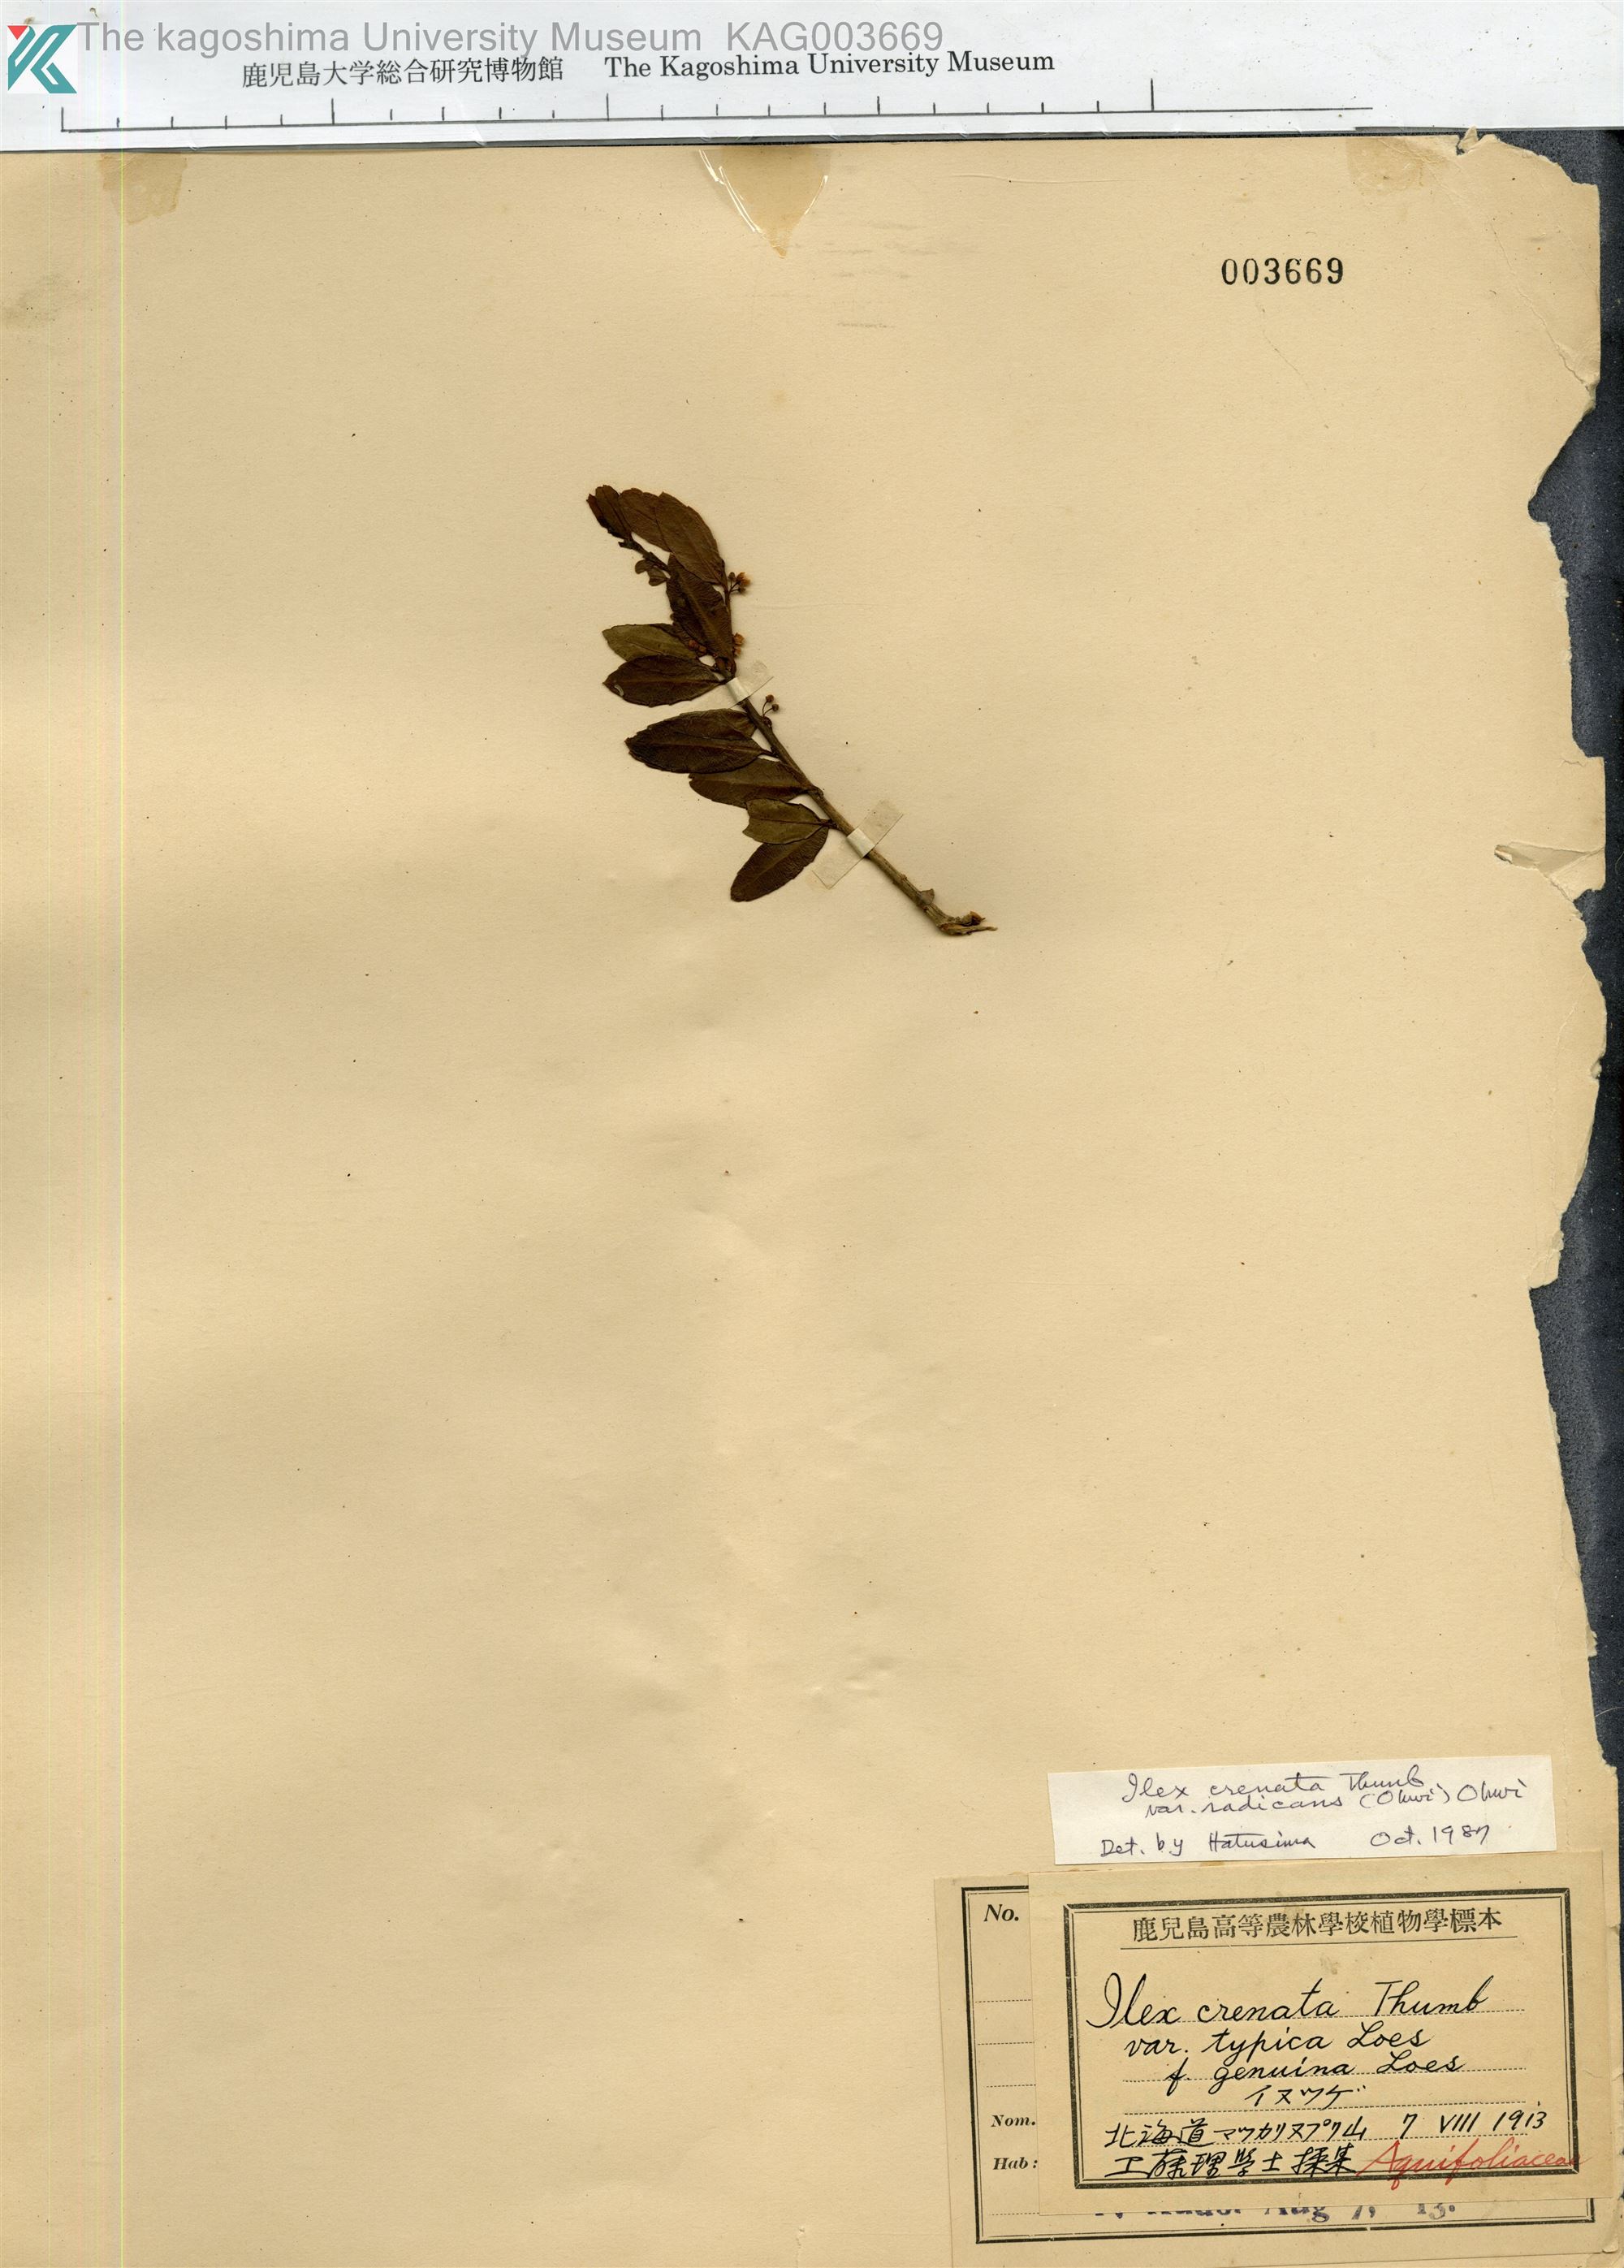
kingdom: Plantae
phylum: Tracheophyta
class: Magnoliopsida
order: Aquifoliales
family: Aquifoliaceae
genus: Ilex
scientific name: Ilex crenata
